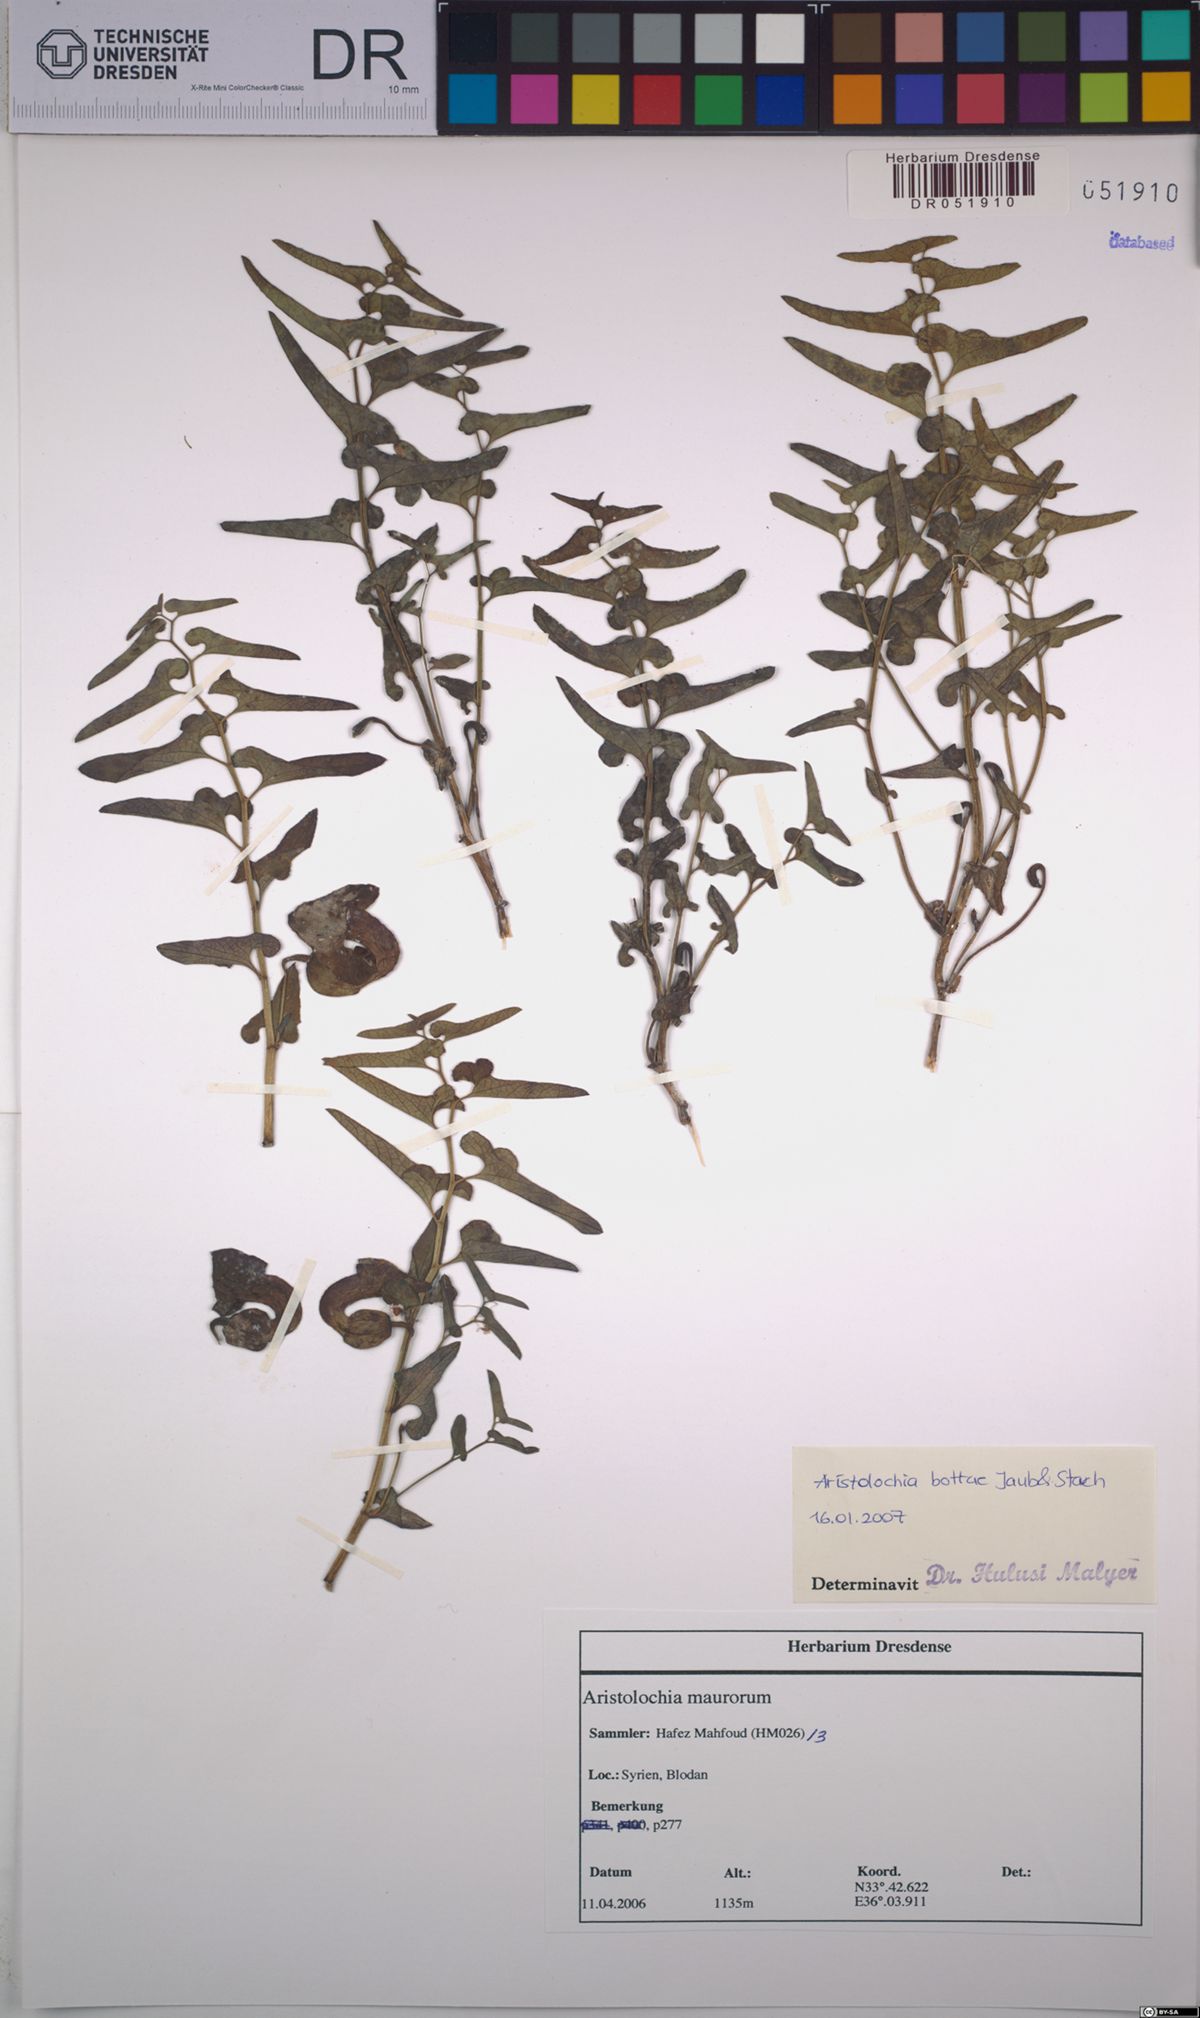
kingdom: Plantae
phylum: Tracheophyta
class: Magnoliopsida
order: Piperales
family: Aristolochiaceae
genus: Aristolochia
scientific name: Aristolochia bottae
